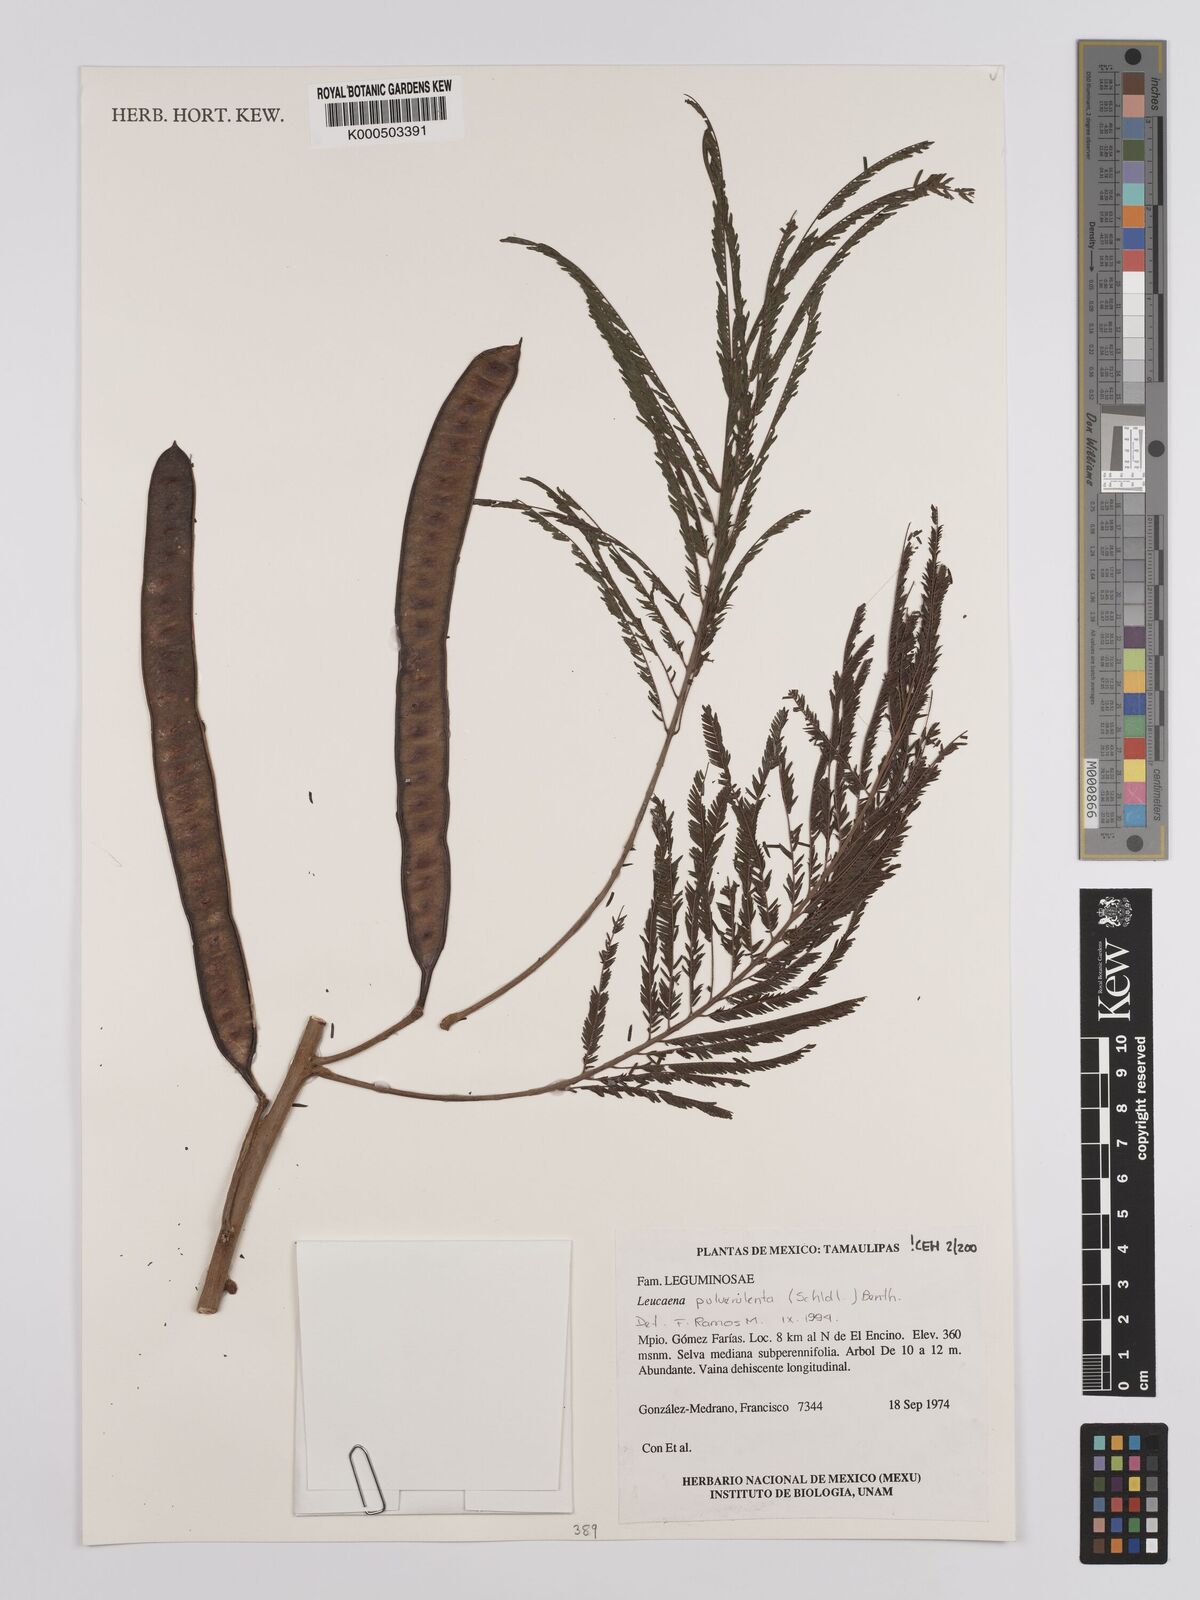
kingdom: Plantae
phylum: Tracheophyta
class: Magnoliopsida
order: Fabales
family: Fabaceae
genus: Leucaena
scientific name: Leucaena pulverulenta
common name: Great leadtree
